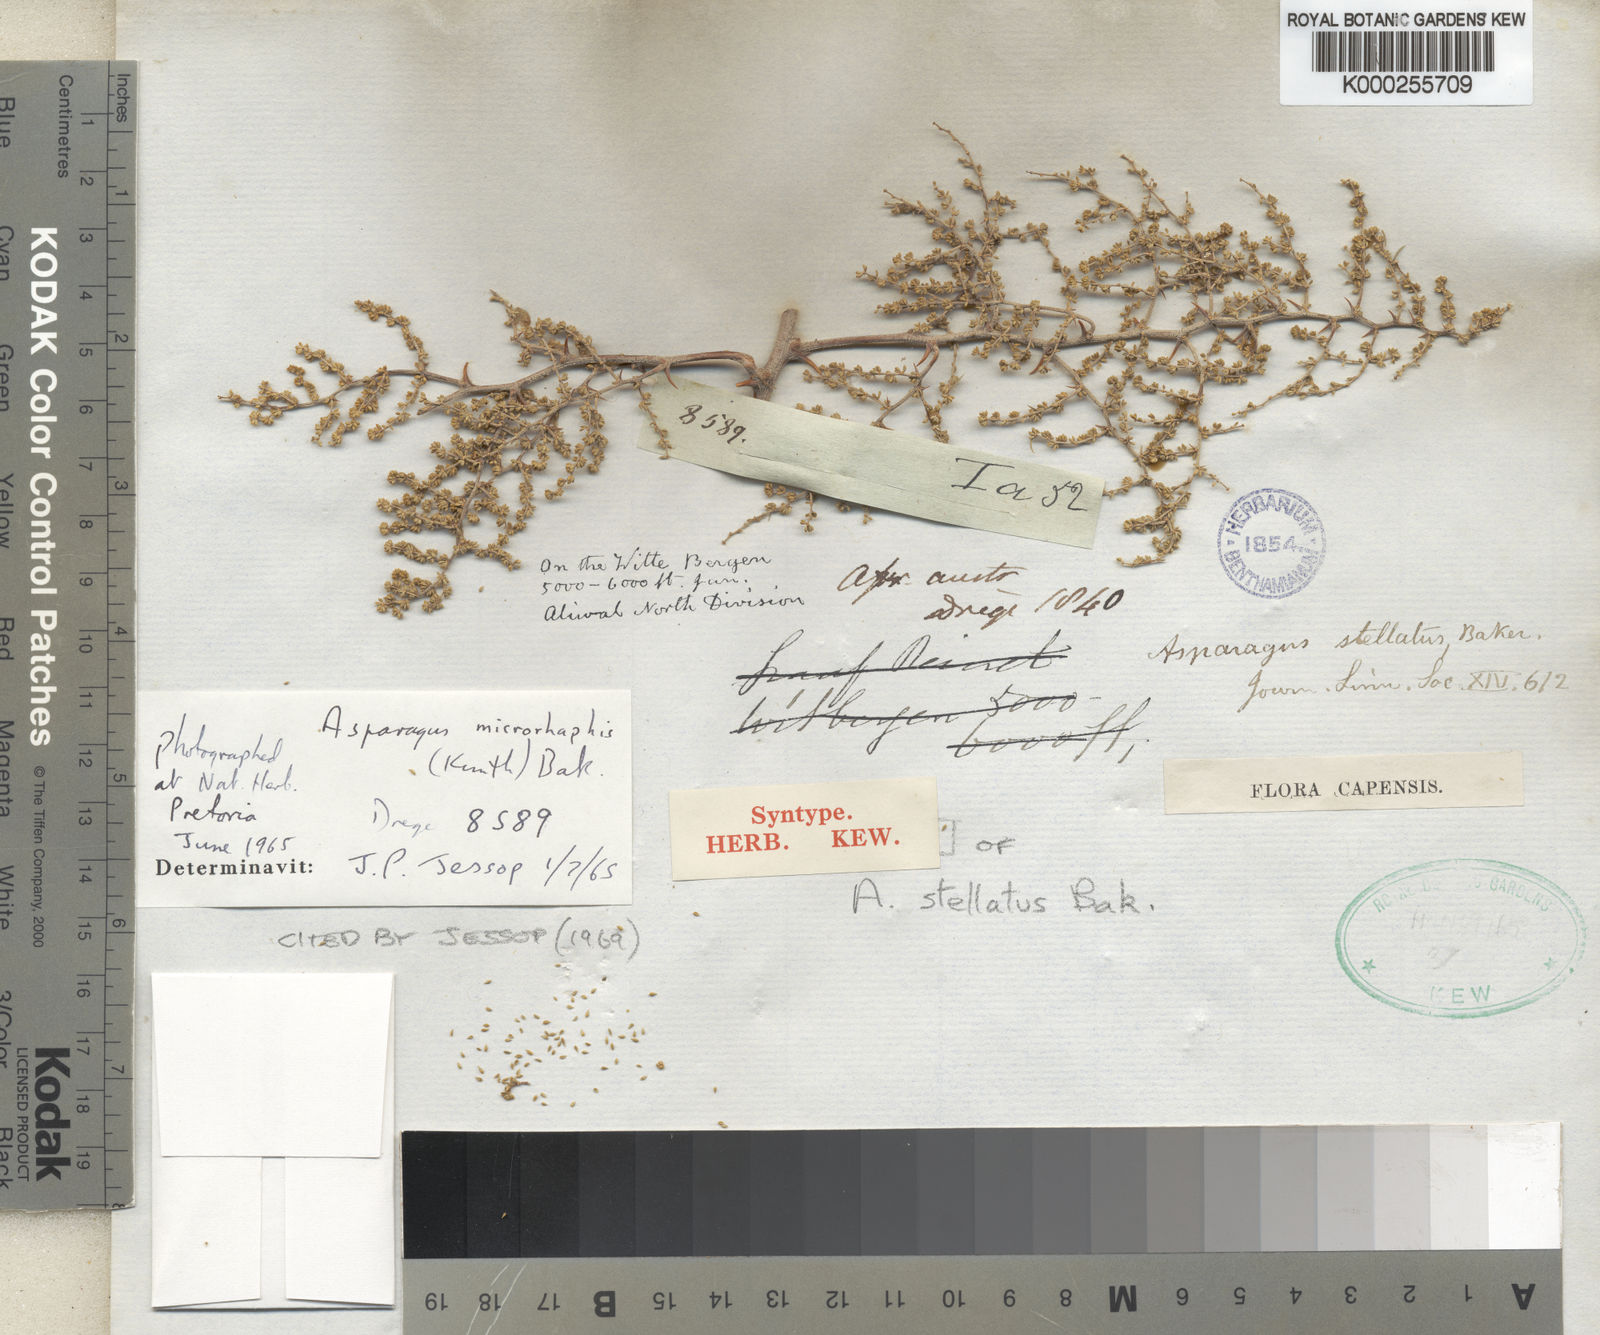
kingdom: Plantae
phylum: Tracheophyta
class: Liliopsida
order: Asparagales
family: Asparagaceae
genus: Asparagus
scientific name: Asparagus microraphis
